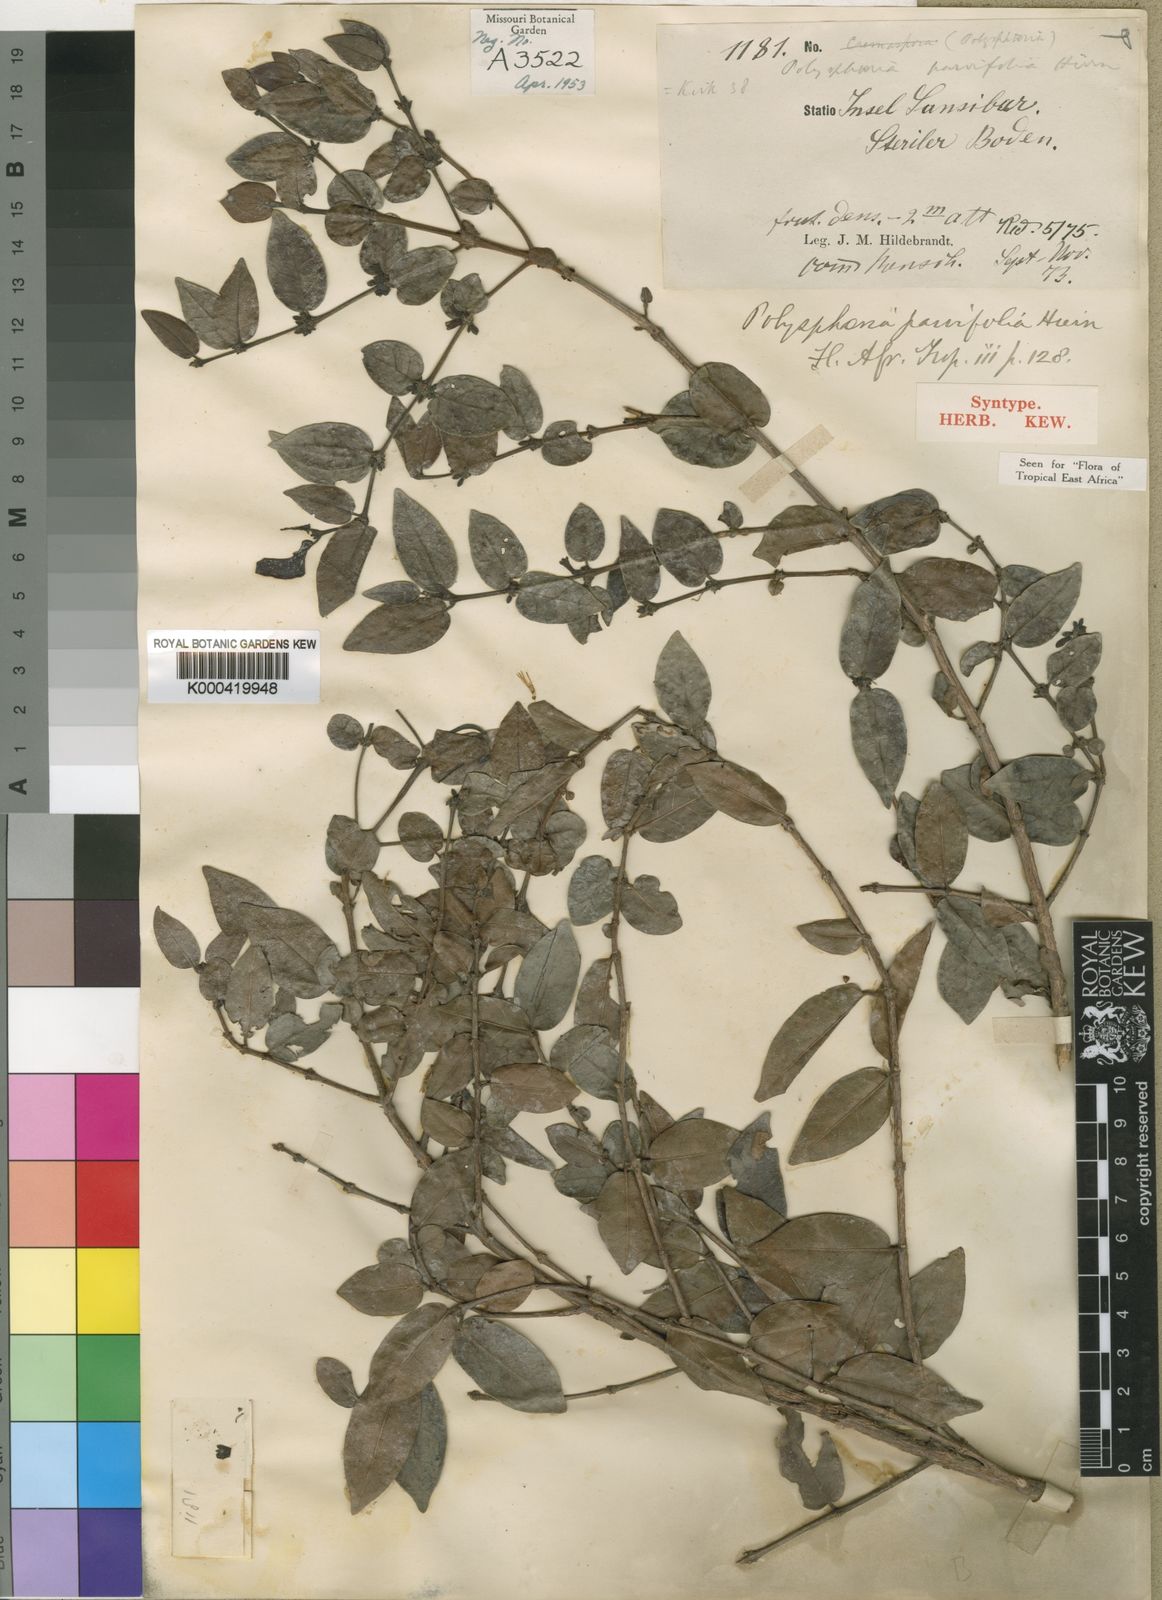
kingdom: Plantae
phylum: Tracheophyta
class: Magnoliopsida
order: Gentianales
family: Rubiaceae
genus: Polysphaeria
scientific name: Polysphaeria parvifolia
